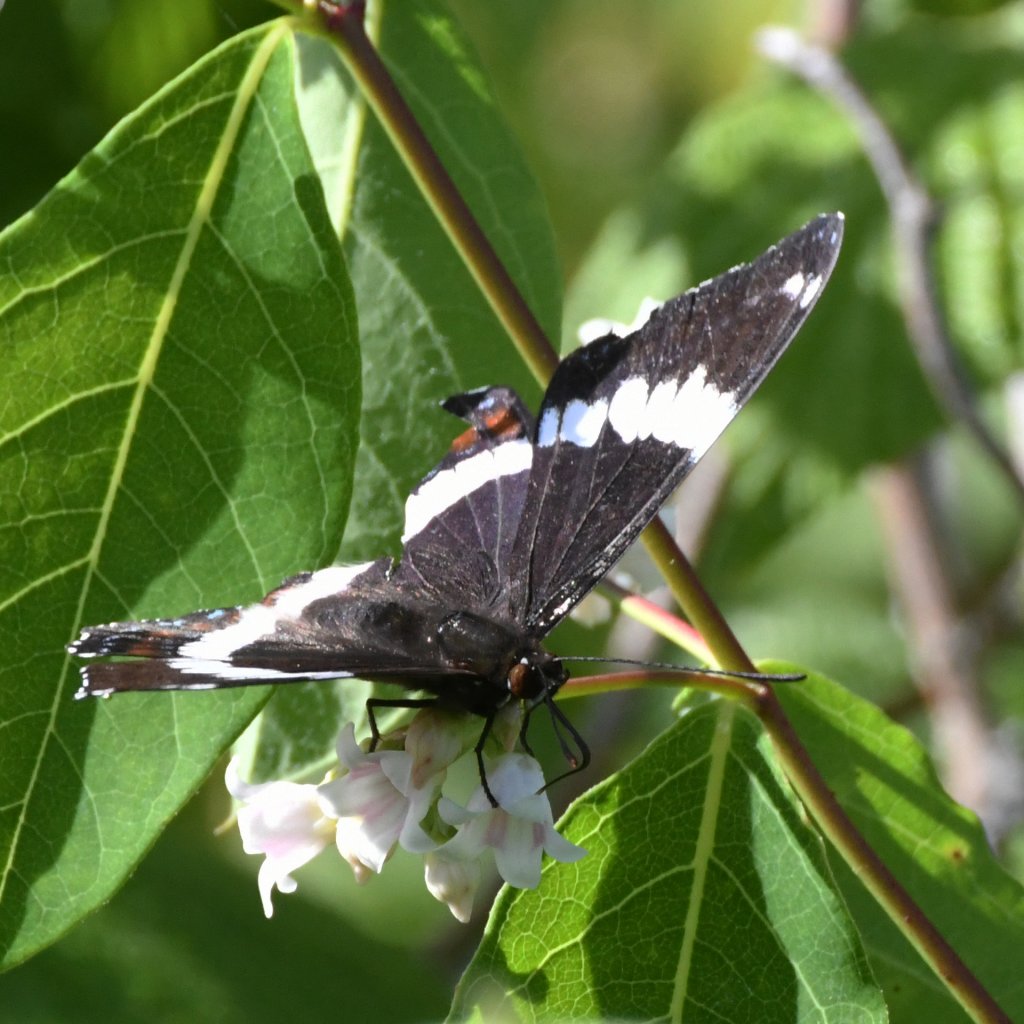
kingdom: Animalia
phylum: Arthropoda
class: Insecta
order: Lepidoptera
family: Nymphalidae
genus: Limenitis
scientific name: Limenitis arthemis
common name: Red-spotted Admiral
